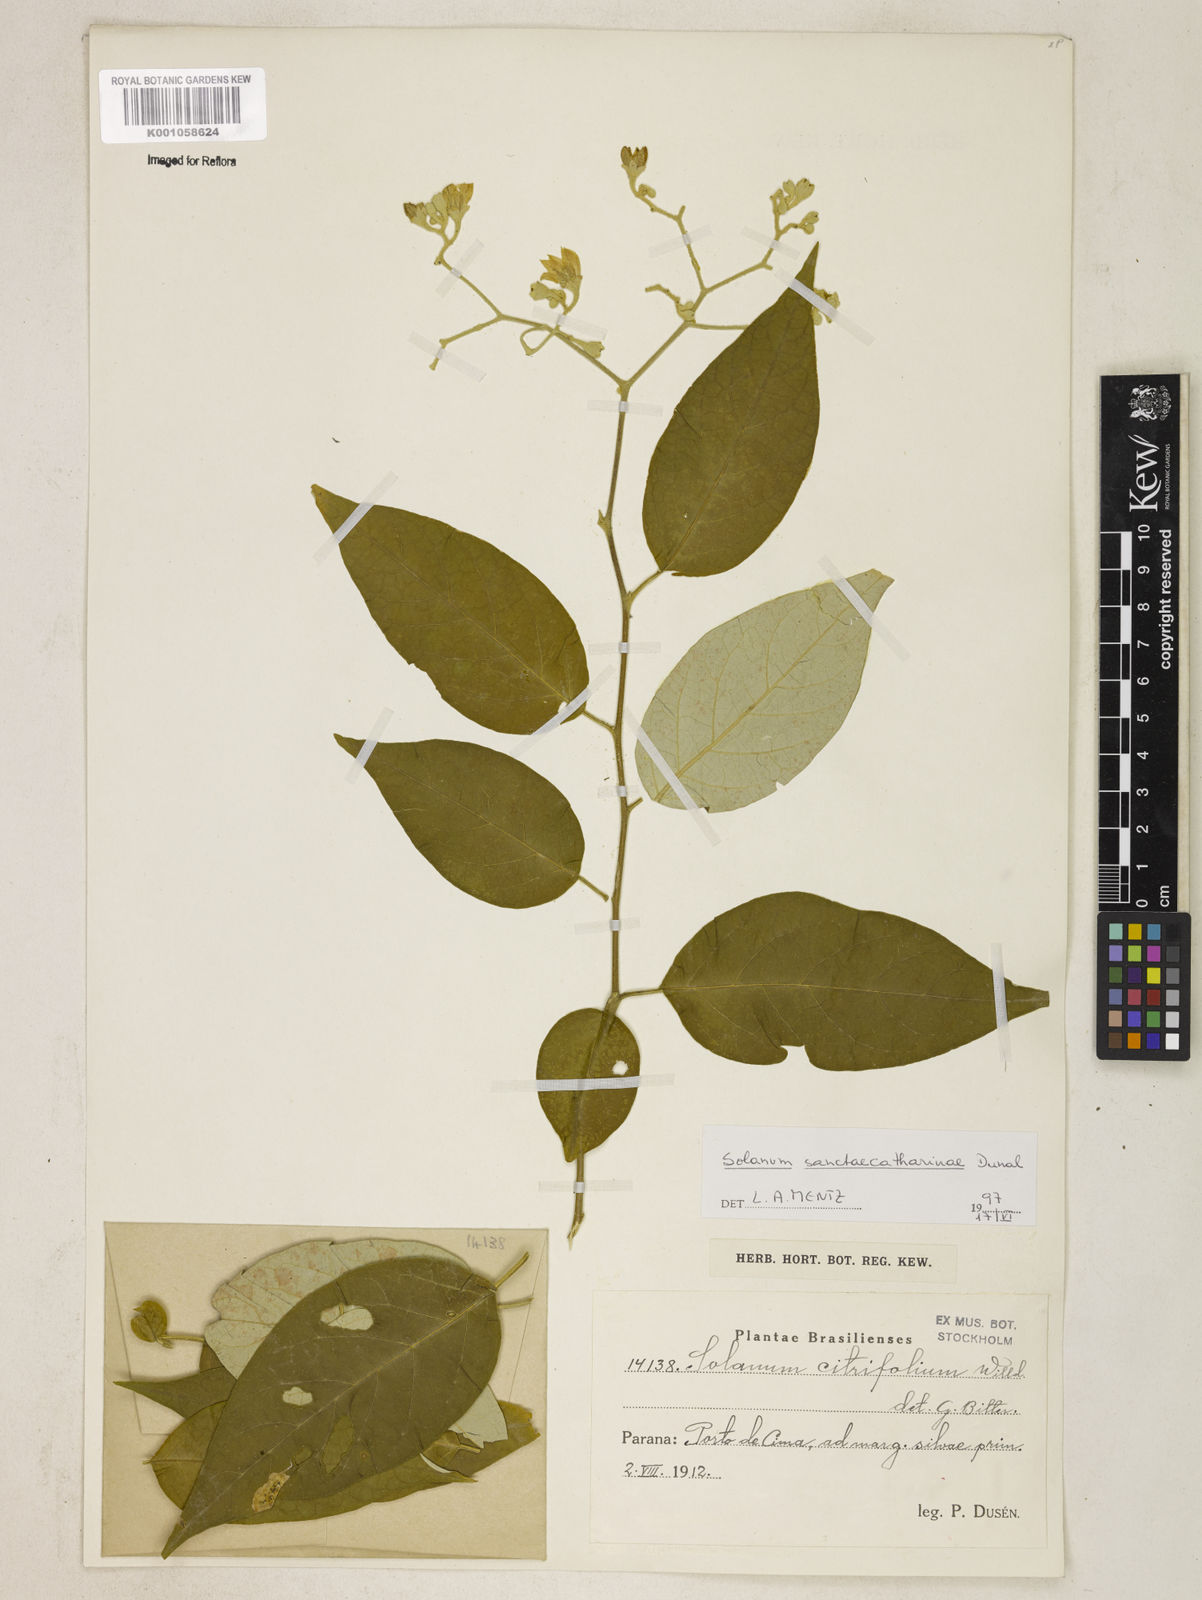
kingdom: Plantae
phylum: Tracheophyta
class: Magnoliopsida
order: Solanales
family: Solanaceae
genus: Solanum
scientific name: Solanum sanctae-catharinae
